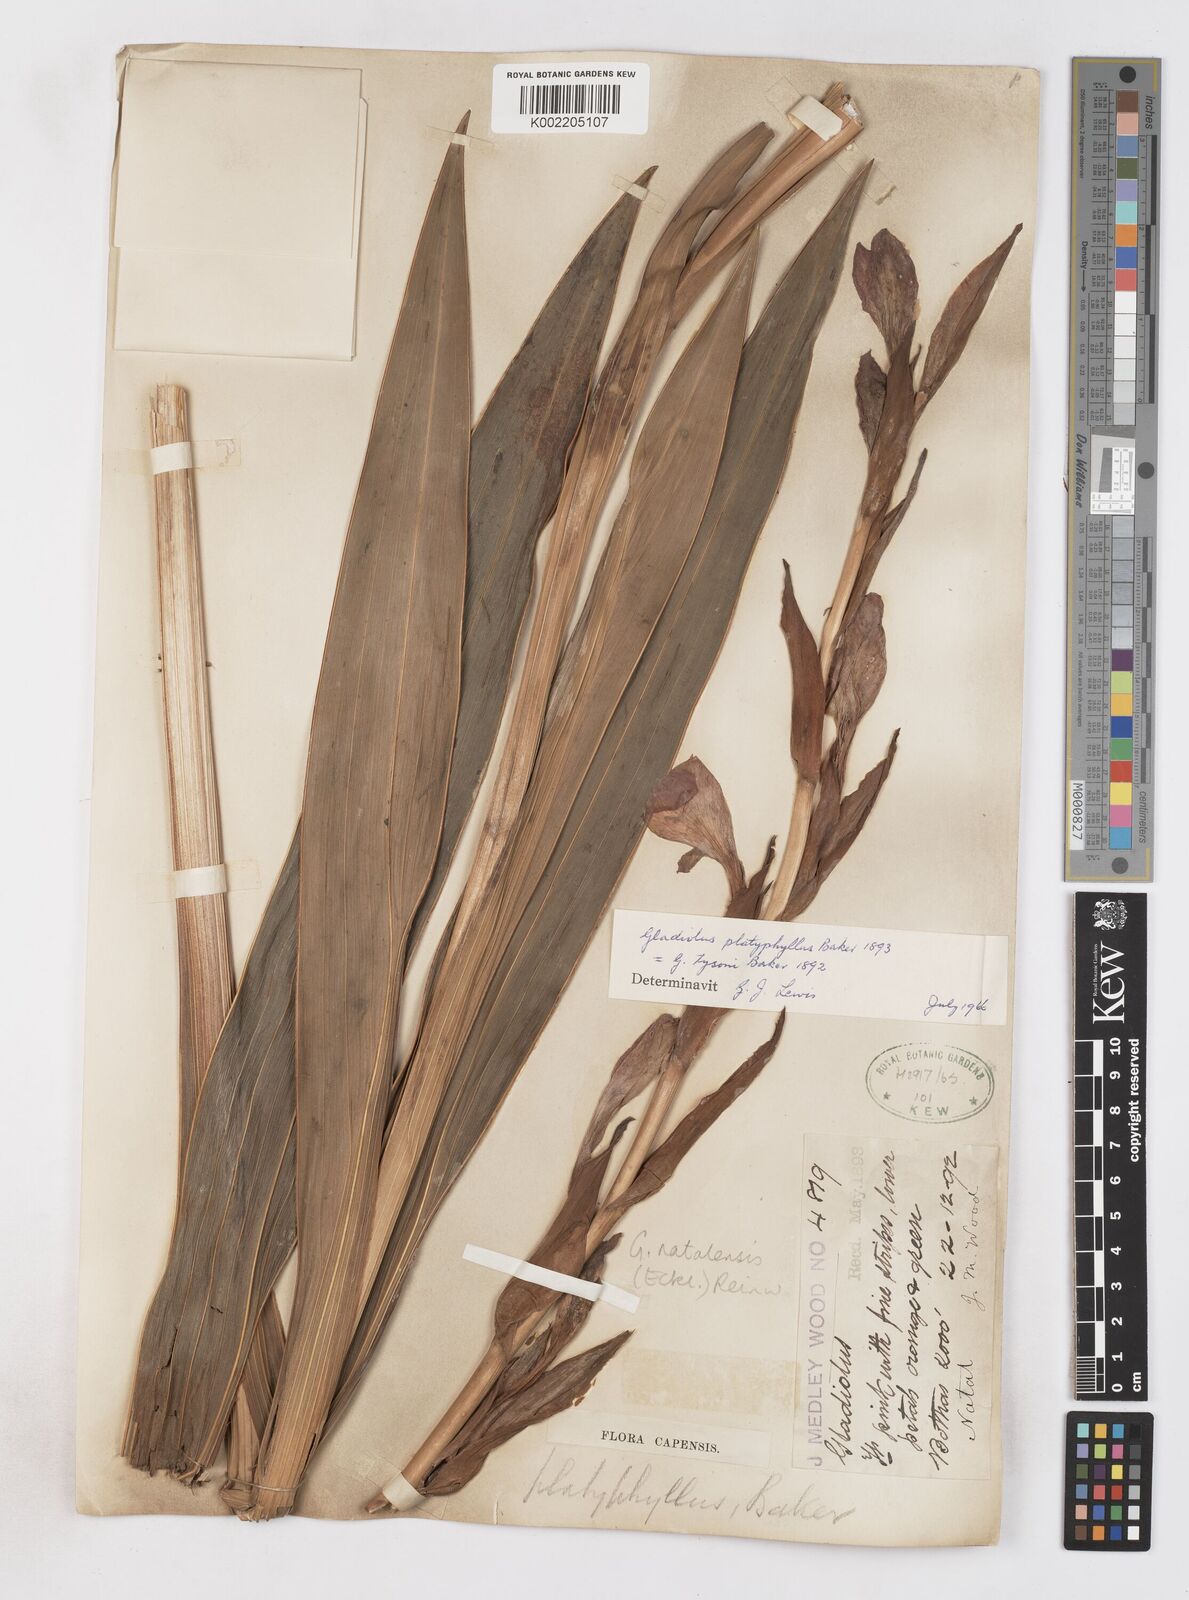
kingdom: Plantae
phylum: Tracheophyta
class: Liliopsida
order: Asparagales
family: Iridaceae
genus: Gladiolus
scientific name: Gladiolus dalenii
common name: Cornflag
